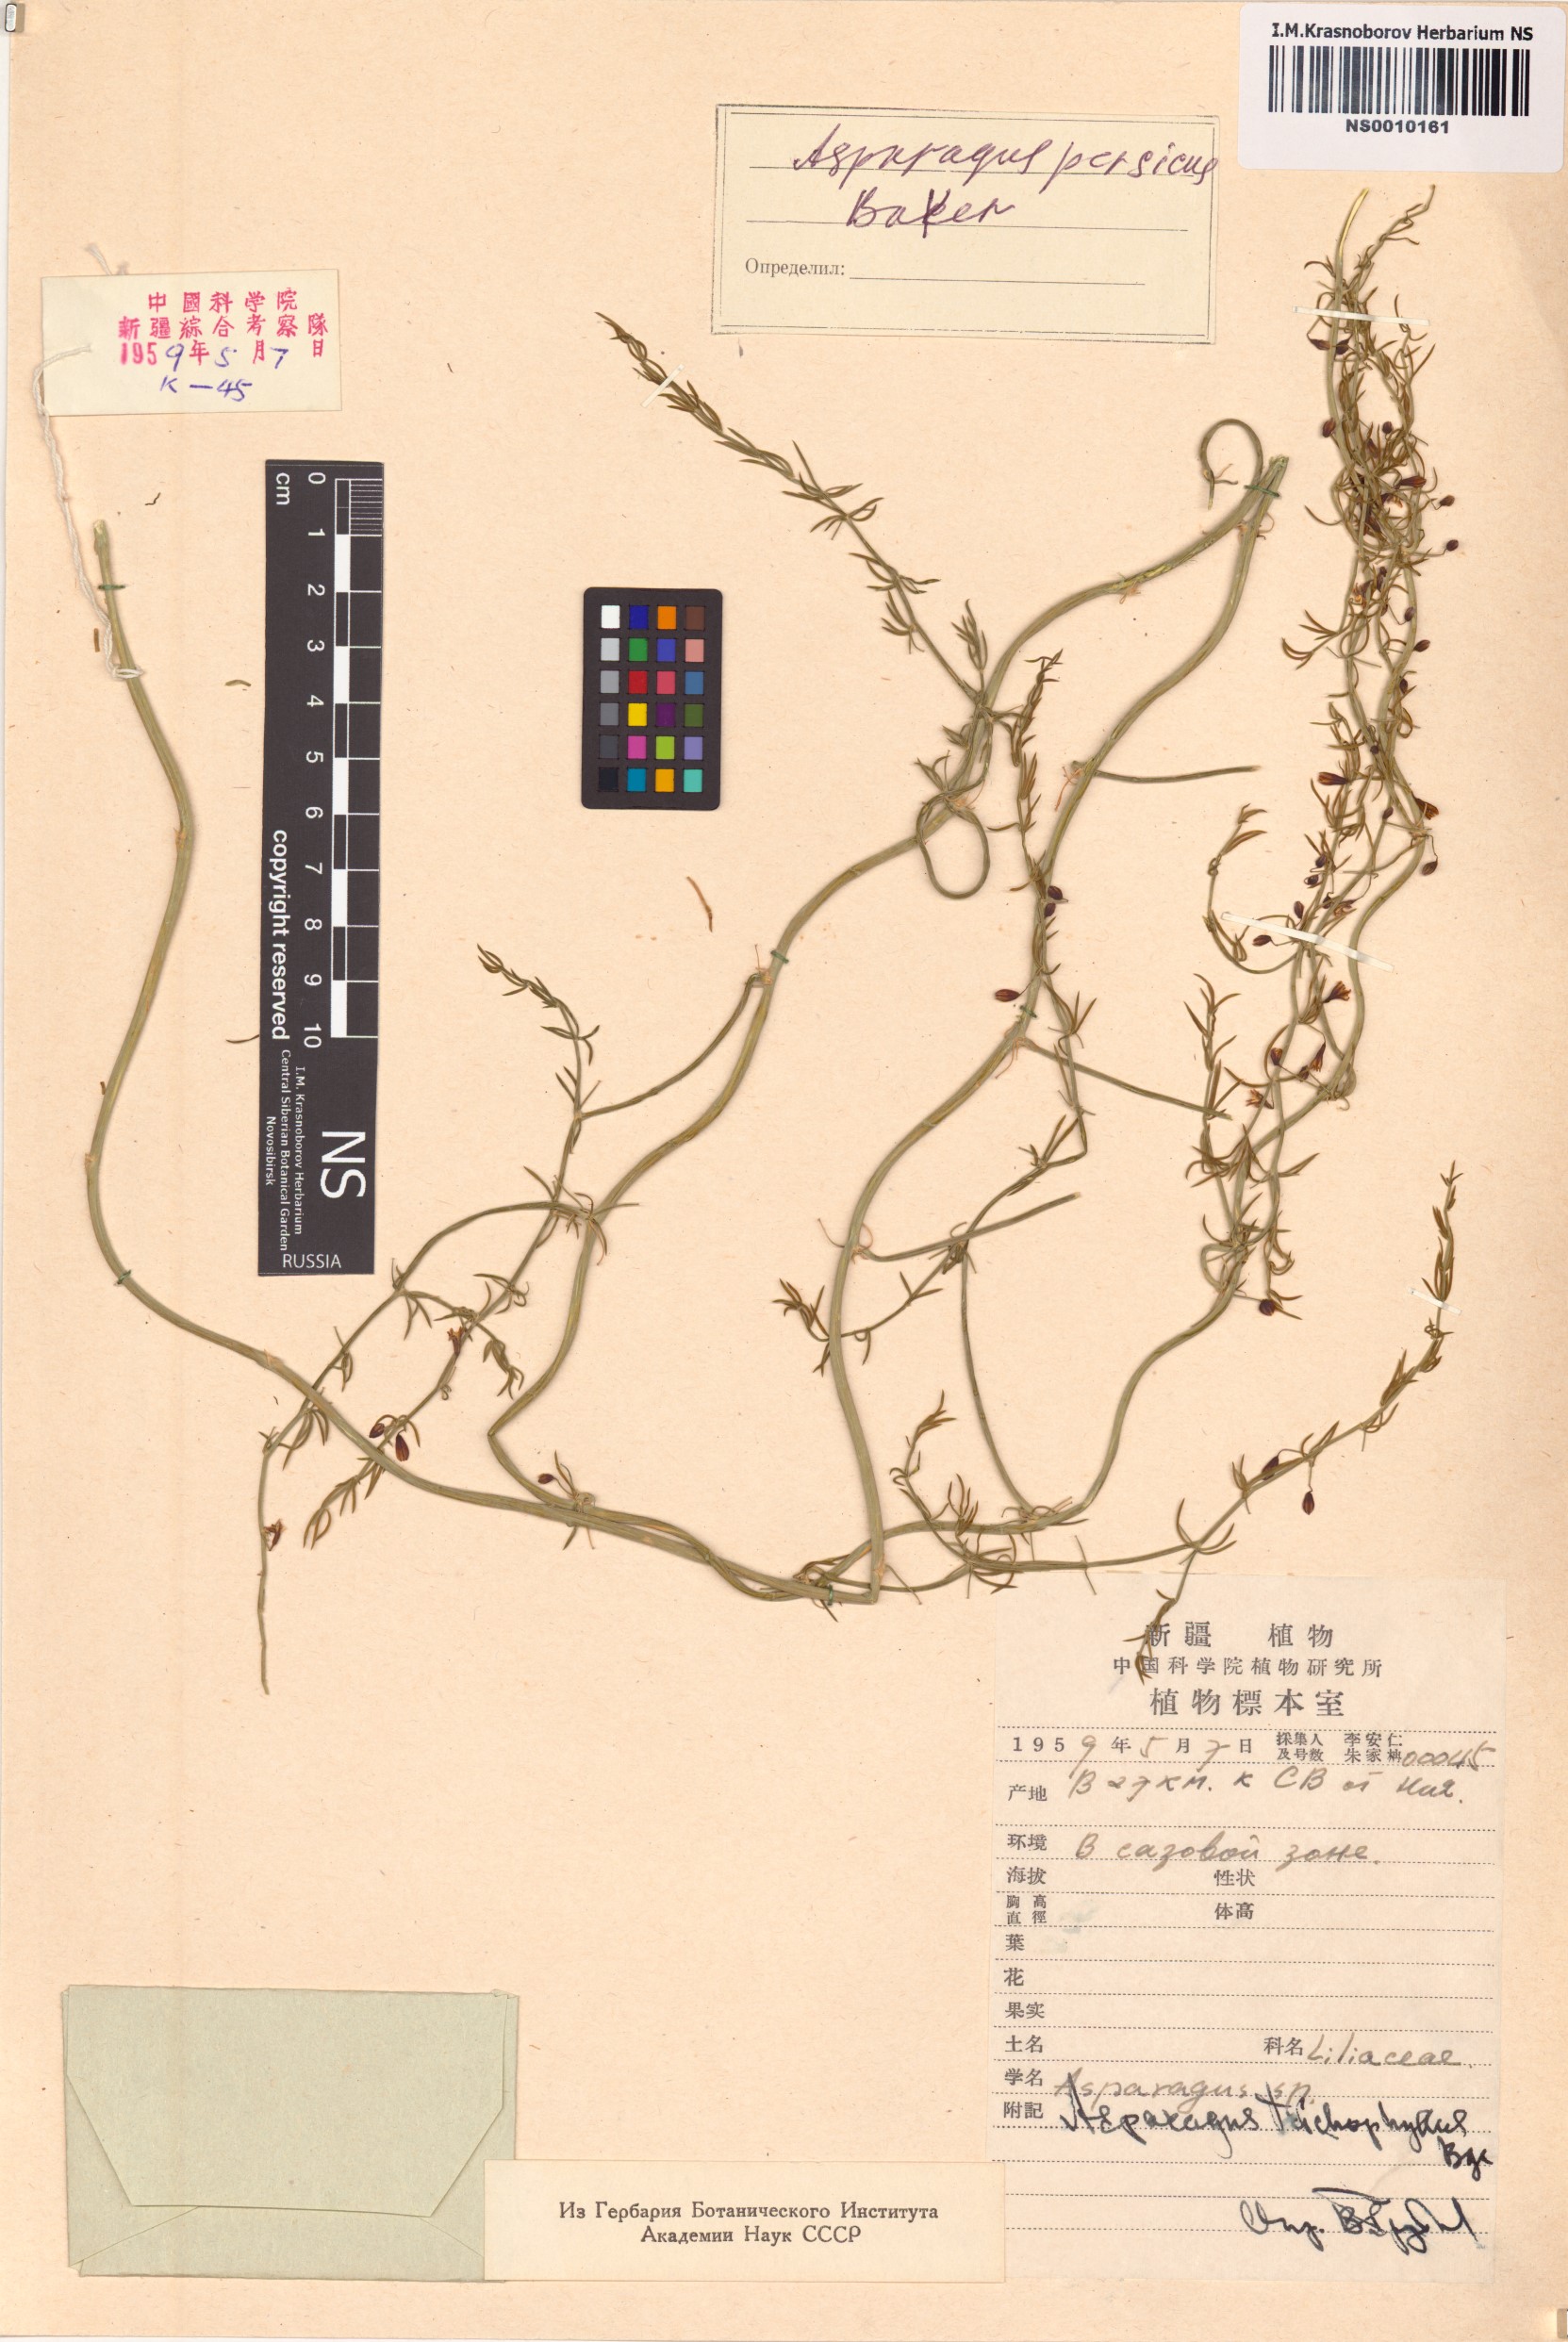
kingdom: Plantae
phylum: Tracheophyta
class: Liliopsida
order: Asparagales
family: Asparagaceae
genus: Asparagus
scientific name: Asparagus persicus
